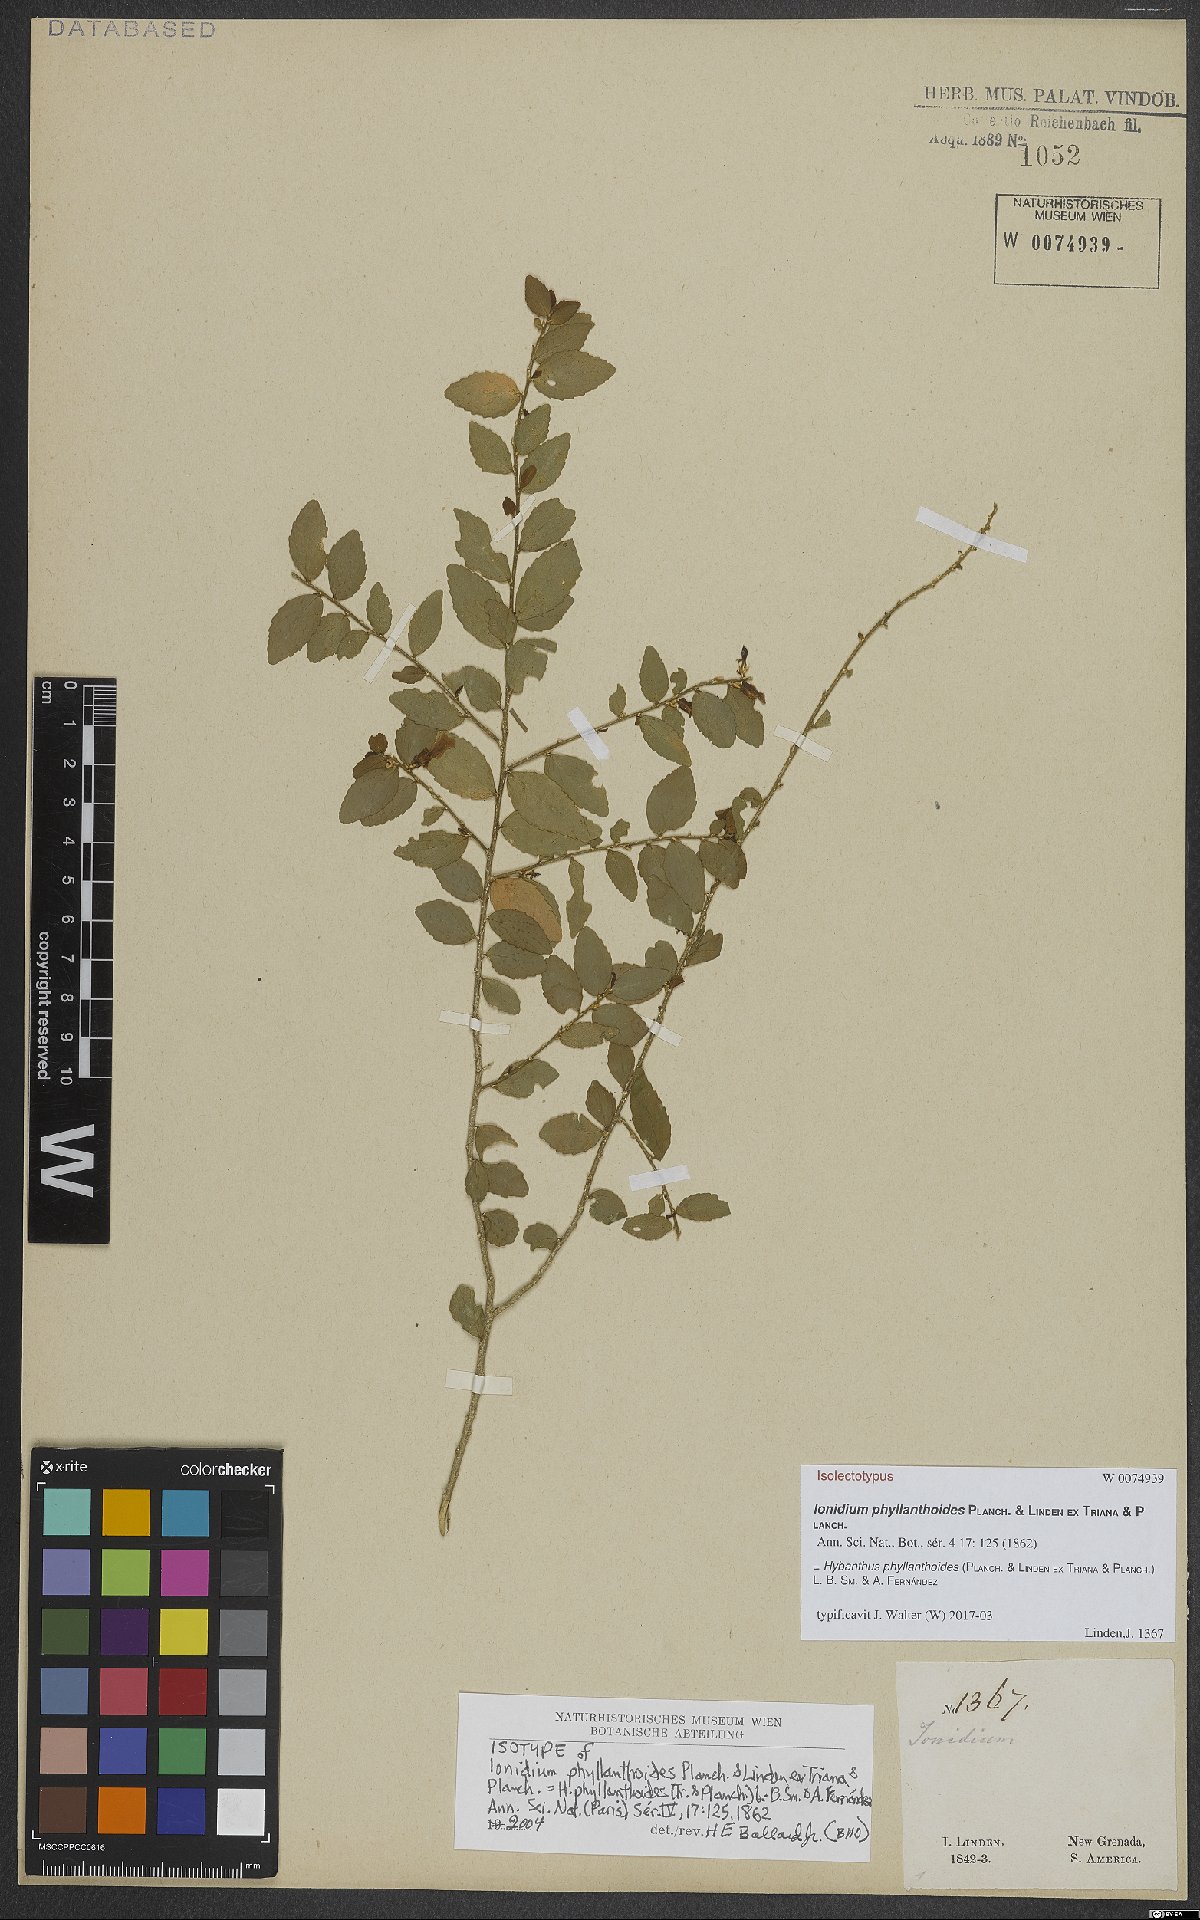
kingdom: Plantae
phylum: Tracheophyta
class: Magnoliopsida
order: Malpighiales
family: Violaceae
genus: Pombalia
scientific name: Pombalia phyllanthoides
